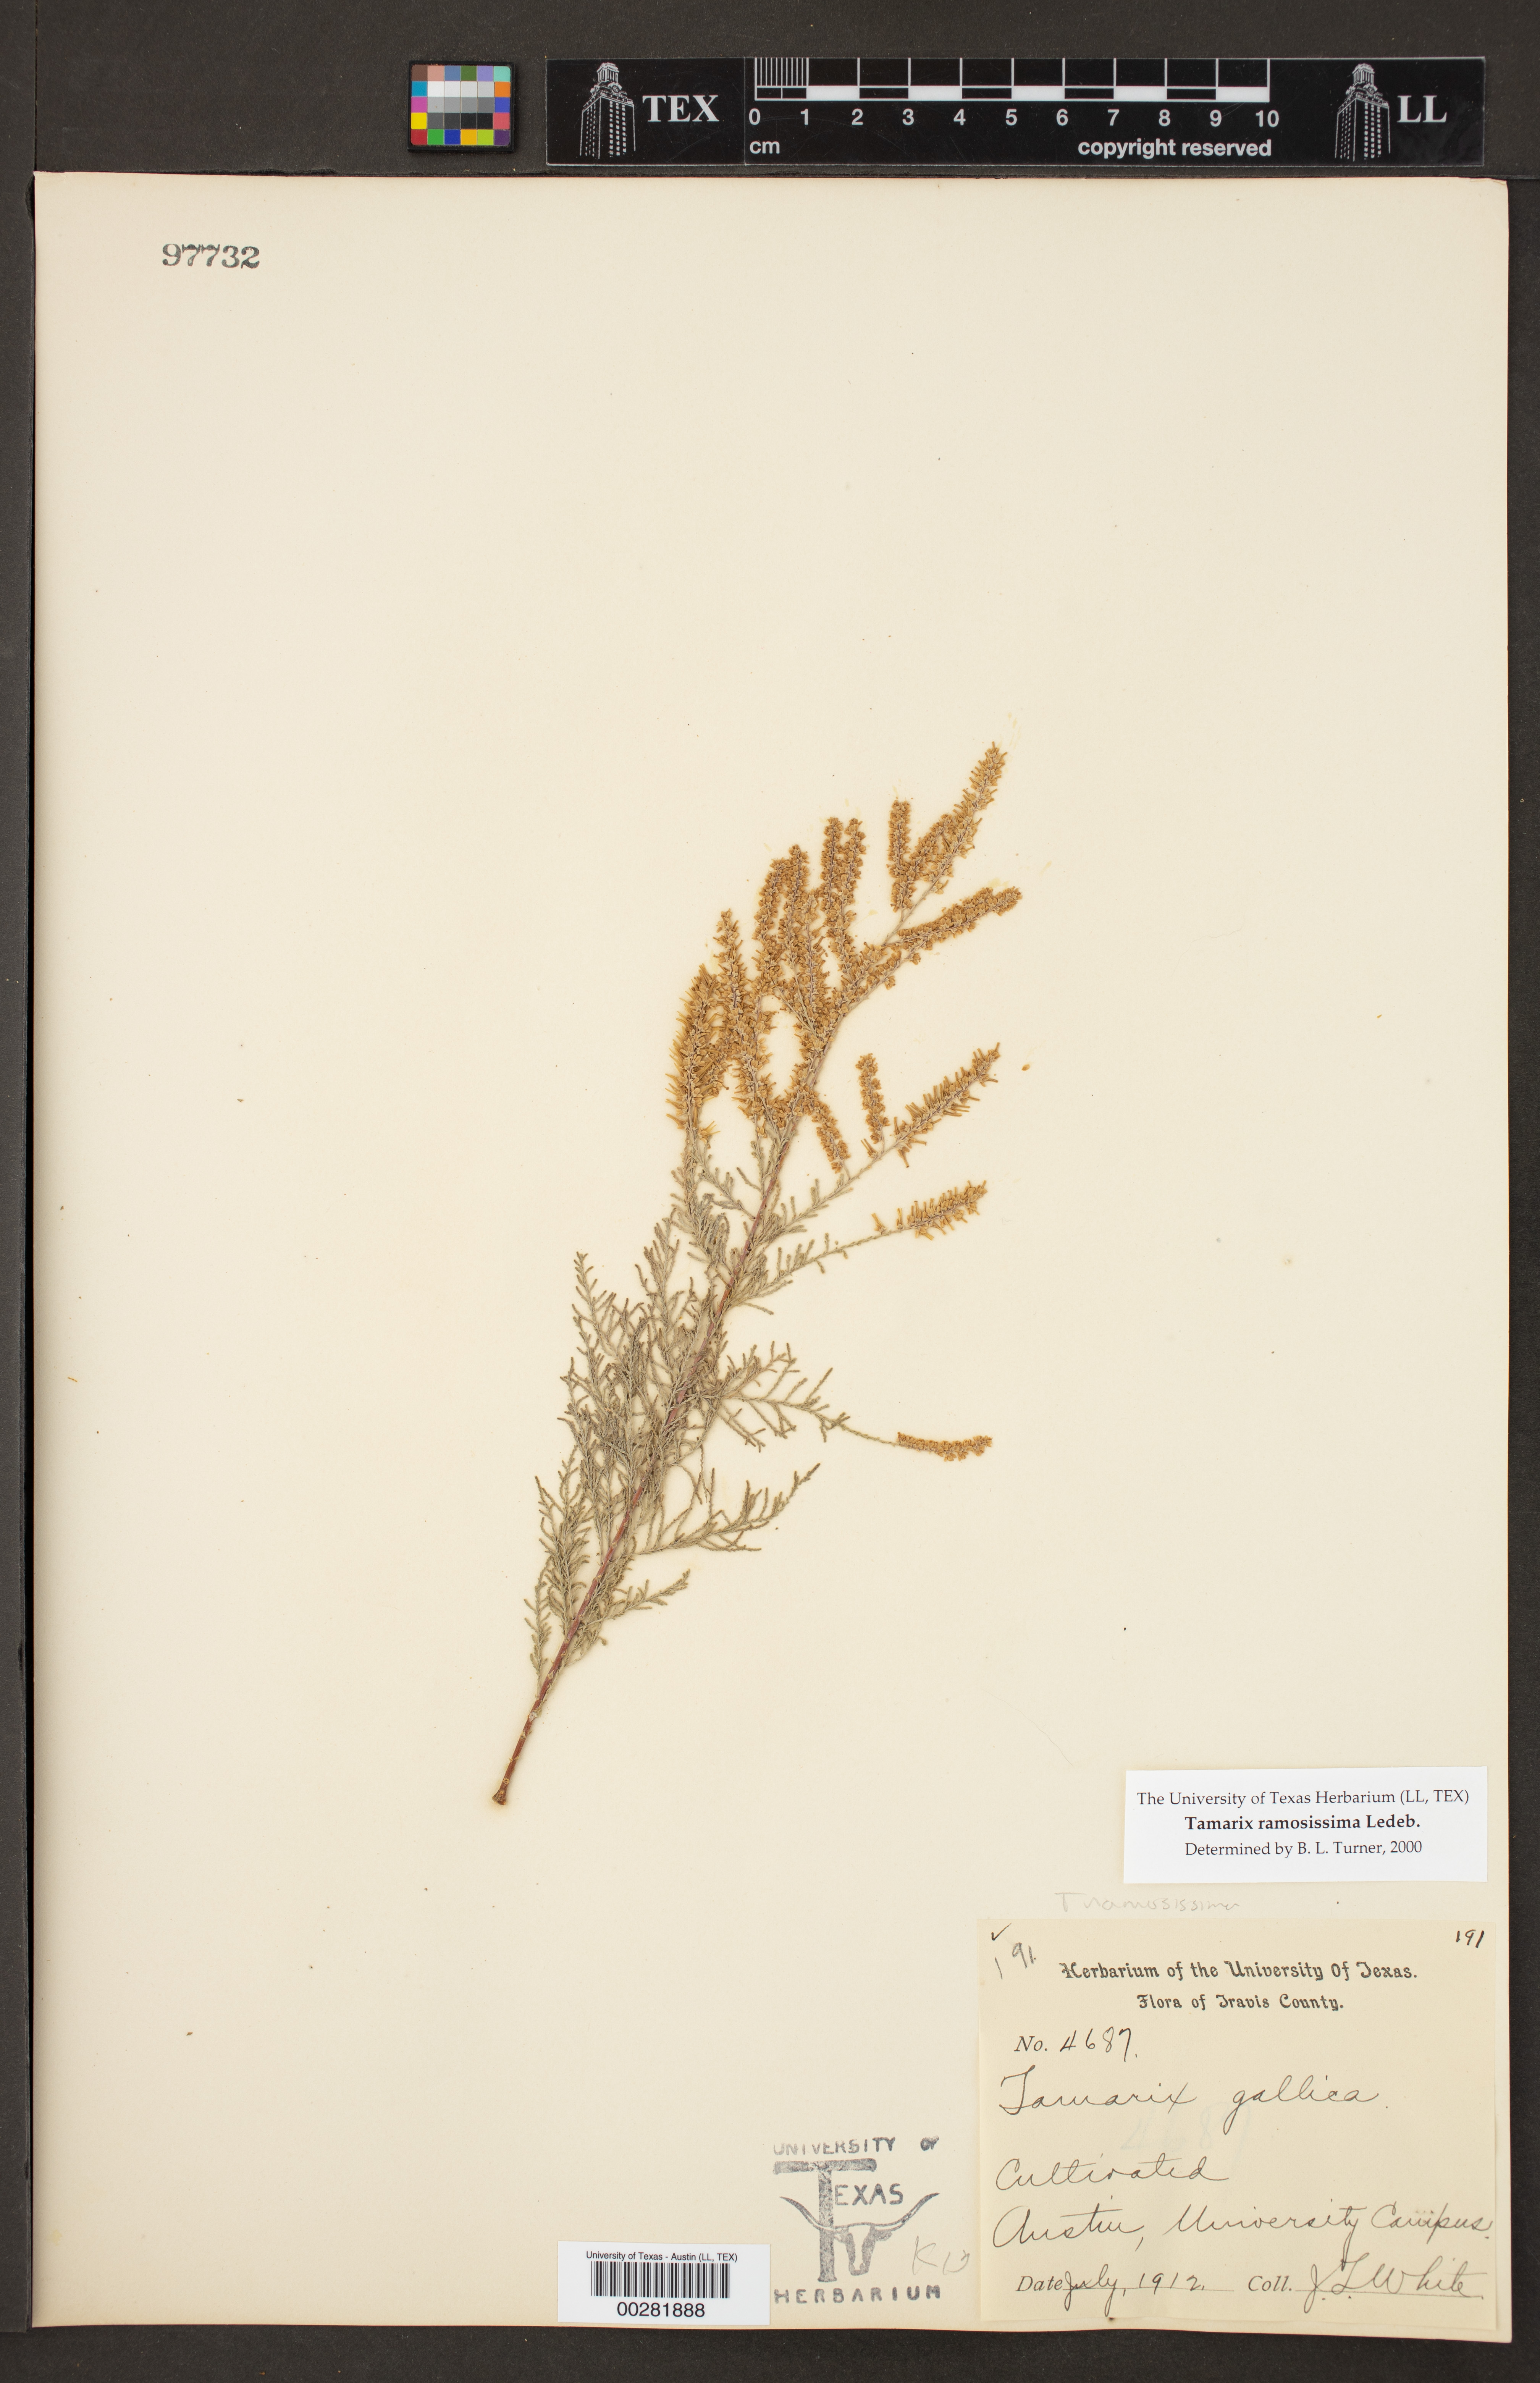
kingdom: Plantae
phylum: Tracheophyta
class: Magnoliopsida
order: Caryophyllales
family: Tamaricaceae
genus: Tamarix
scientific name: Tamarix ramosissima
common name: Pink tamarisk
